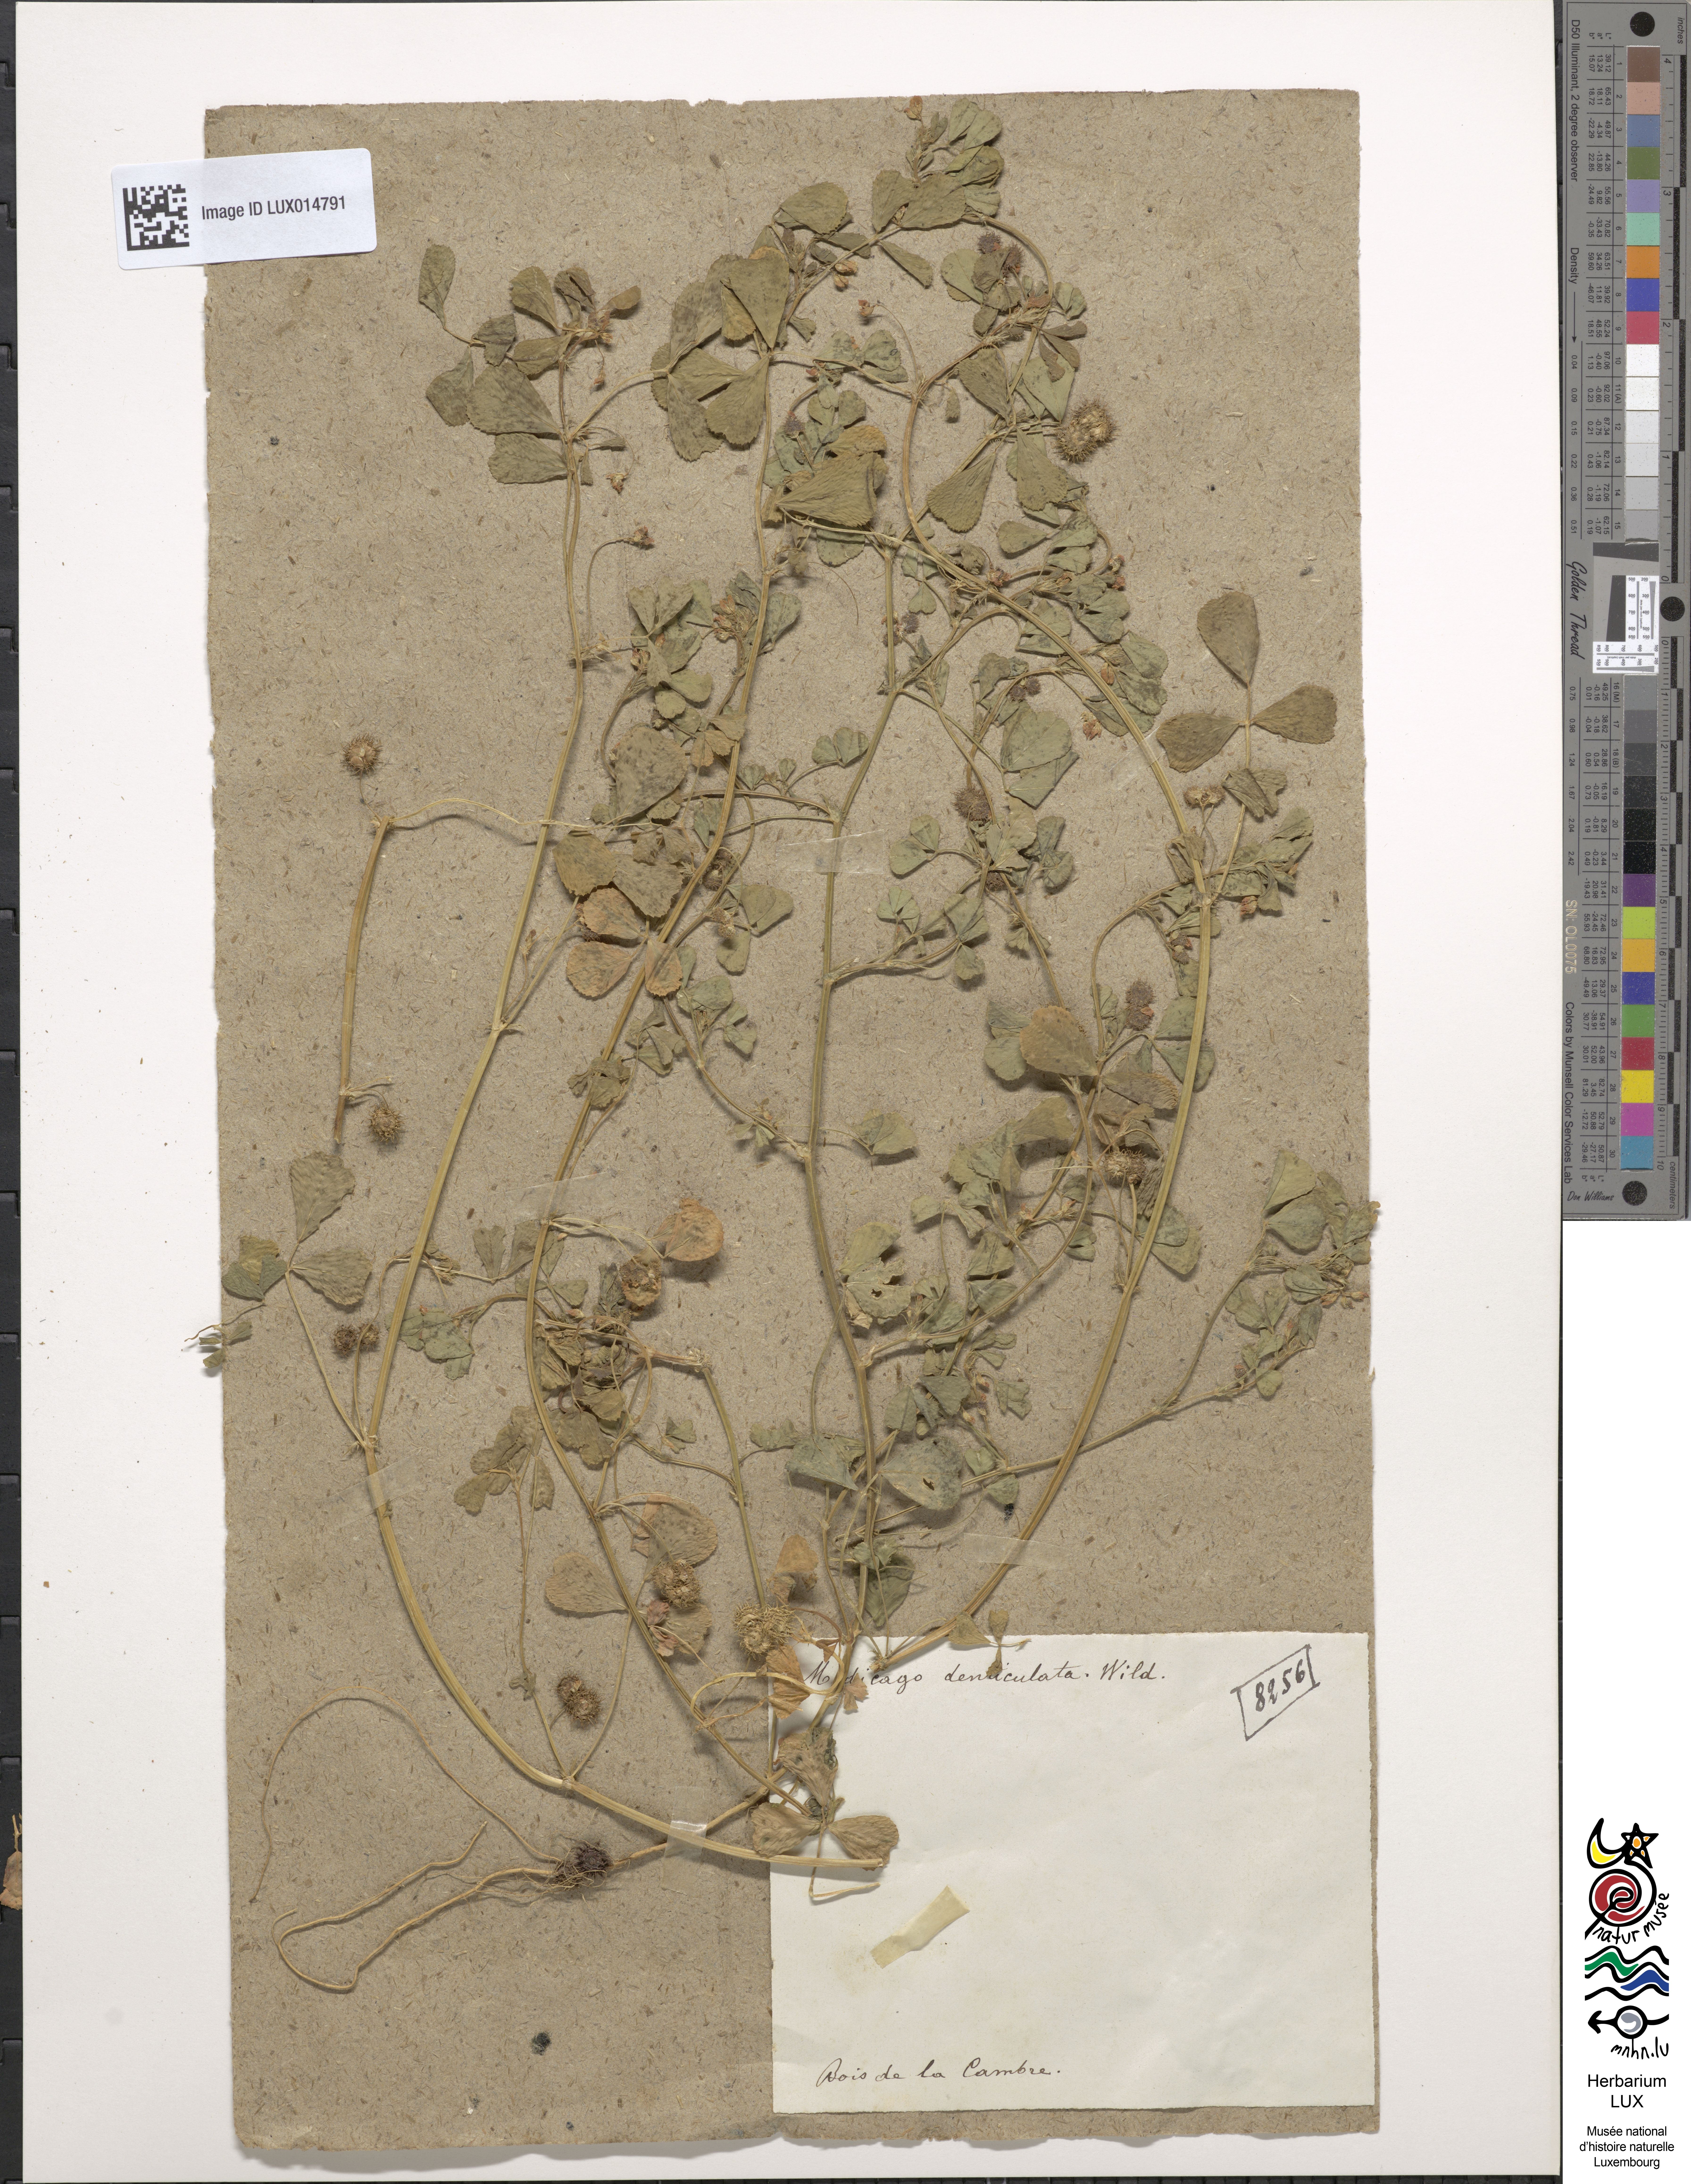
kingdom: Plantae
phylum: Tracheophyta
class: Magnoliopsida
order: Fabales
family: Fabaceae
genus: Medicago
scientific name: Medicago polymorpha
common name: Burclover
